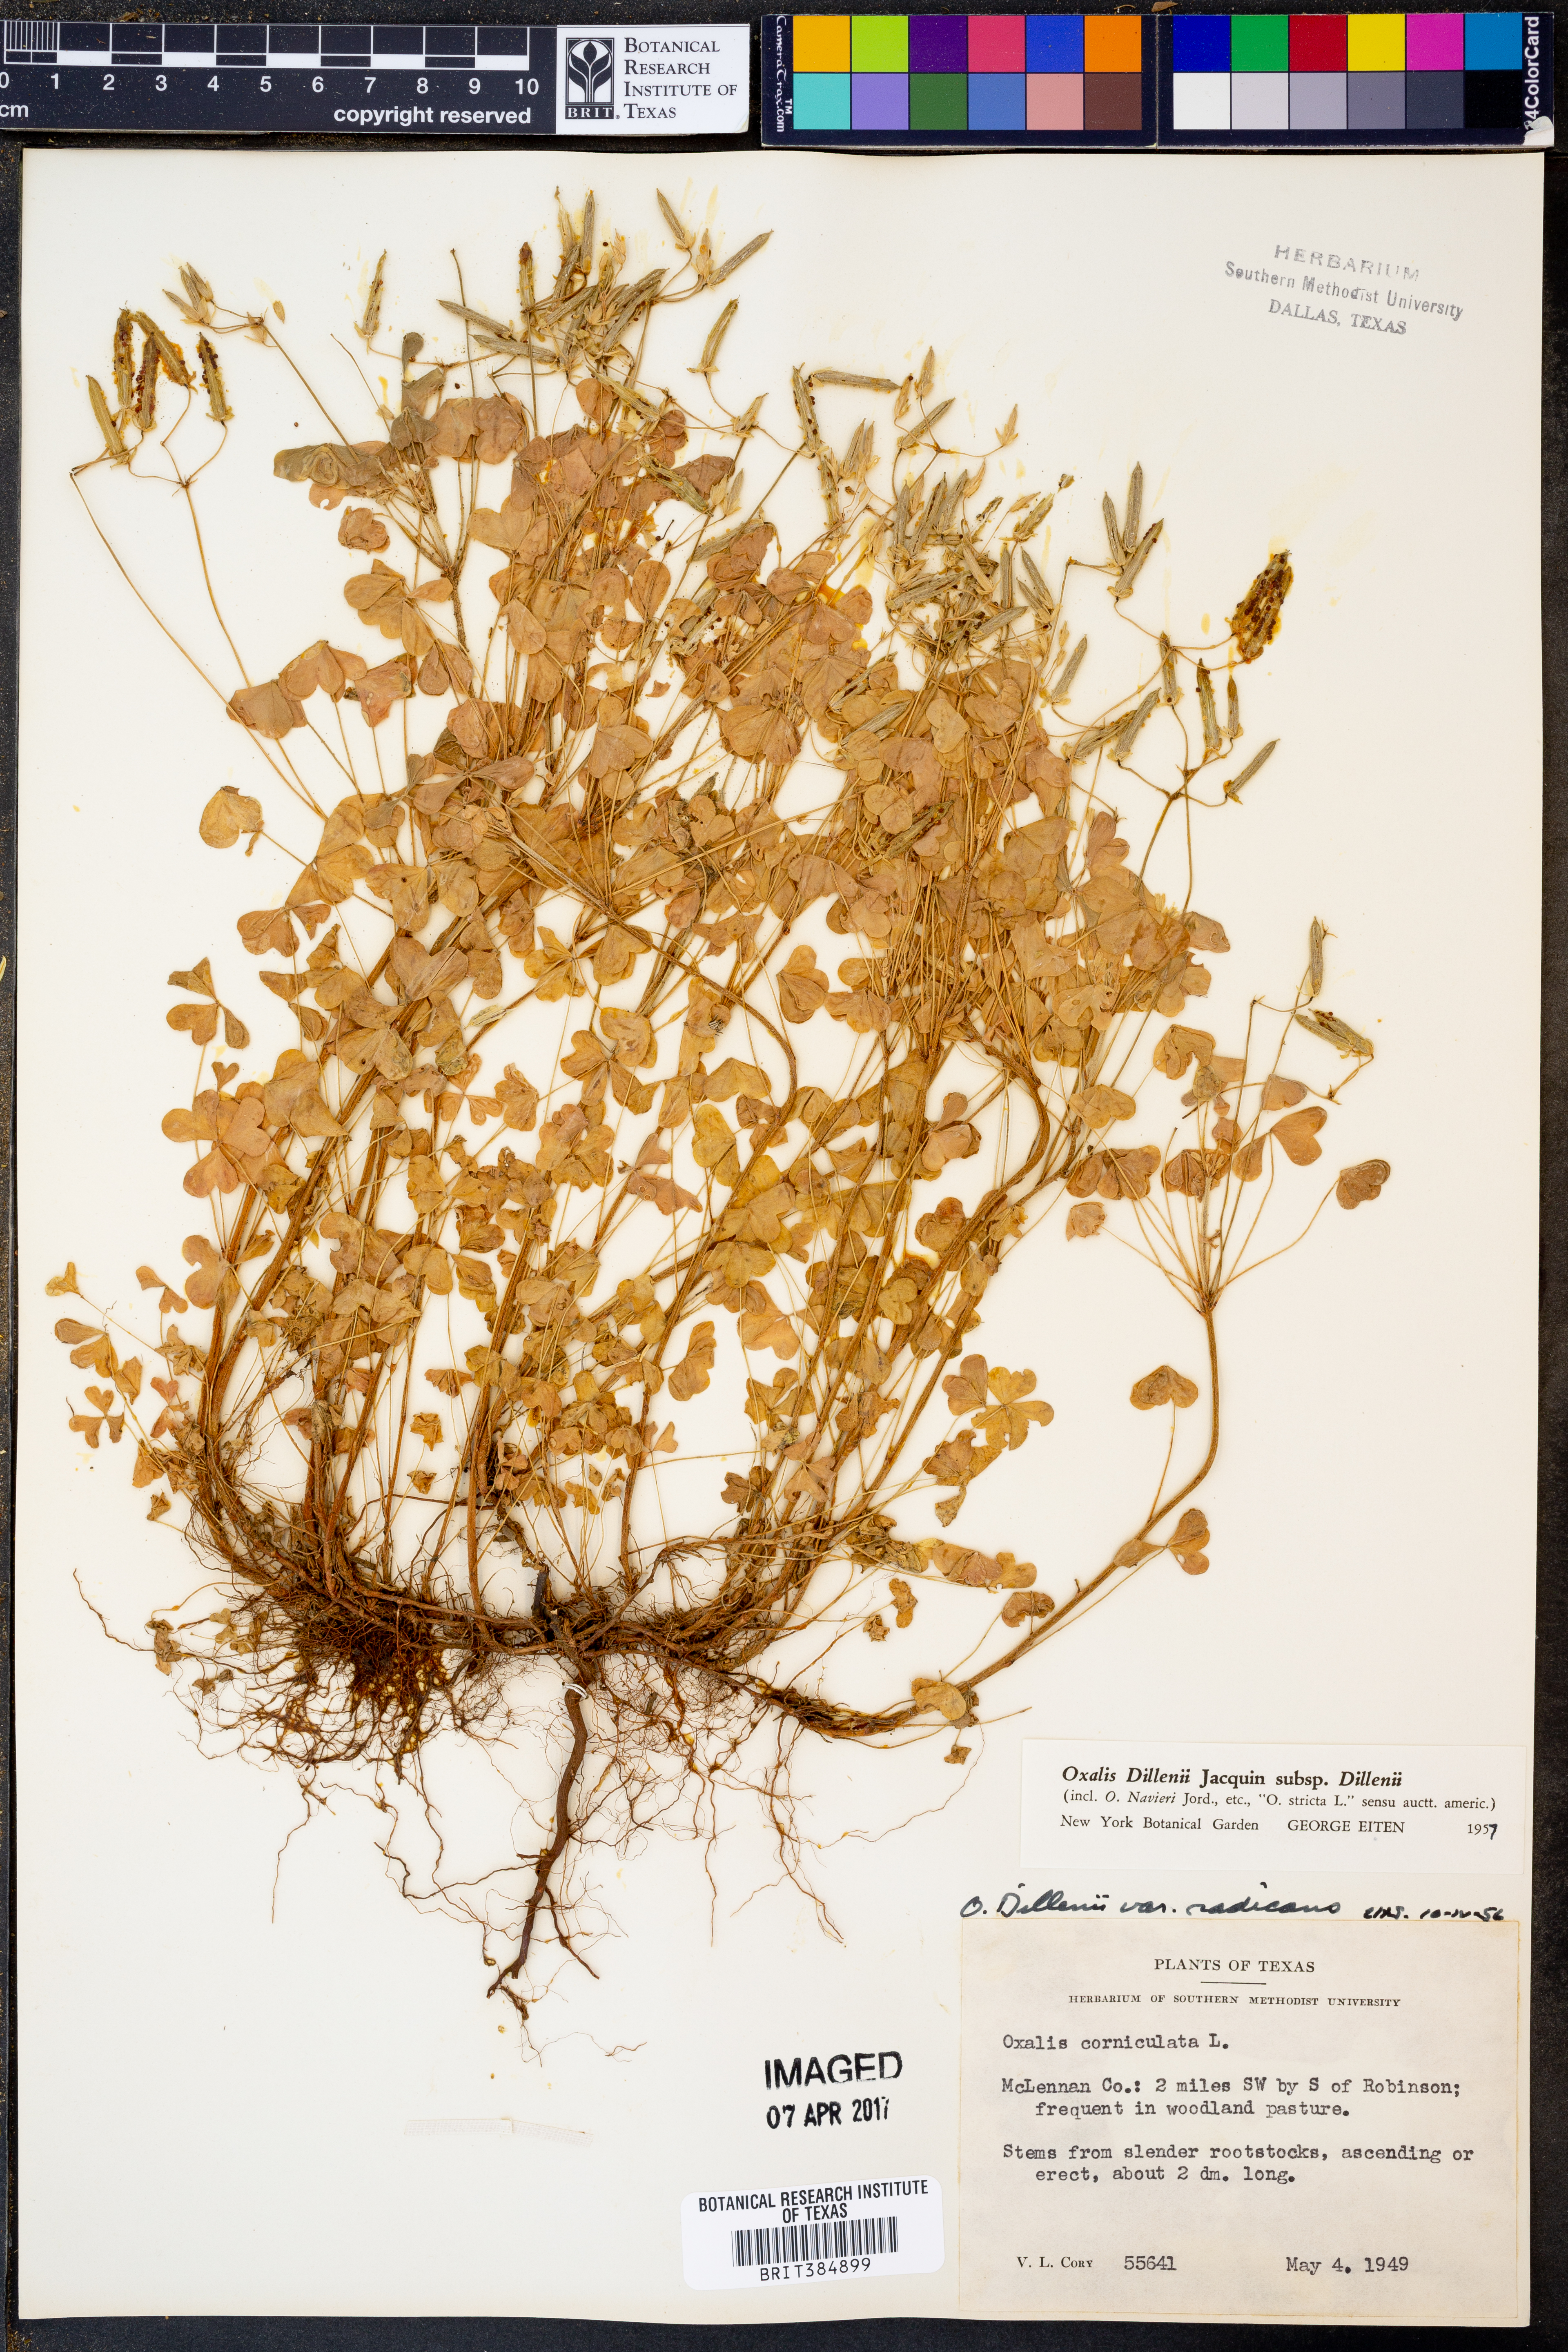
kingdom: Plantae
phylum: Tracheophyta
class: Magnoliopsida
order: Oxalidales
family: Oxalidaceae
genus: Oxalis
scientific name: Oxalis dillenii
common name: Sussex yellow-sorrel
